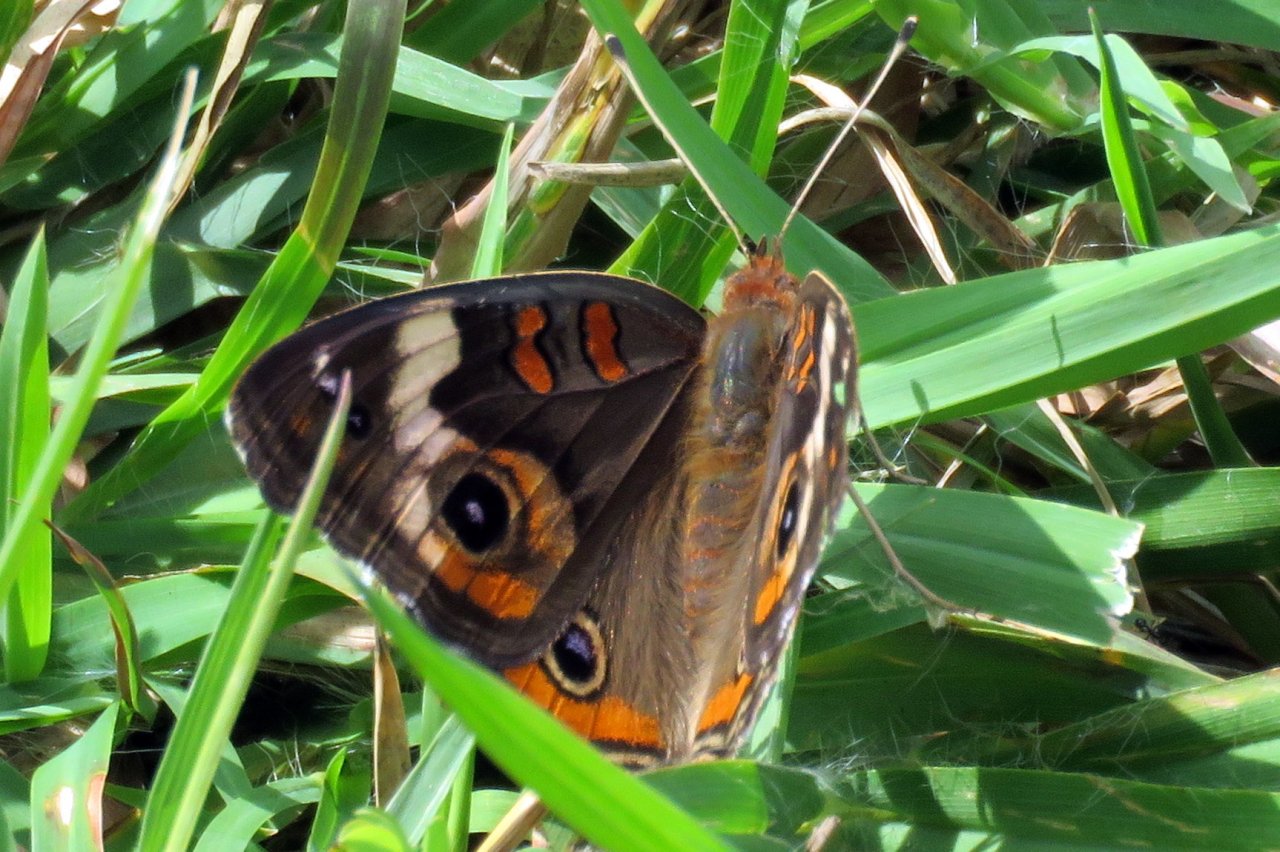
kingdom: Animalia
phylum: Arthropoda
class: Insecta
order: Lepidoptera
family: Nymphalidae
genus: Junonia
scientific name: Junonia coenia
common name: Common Buckeye
